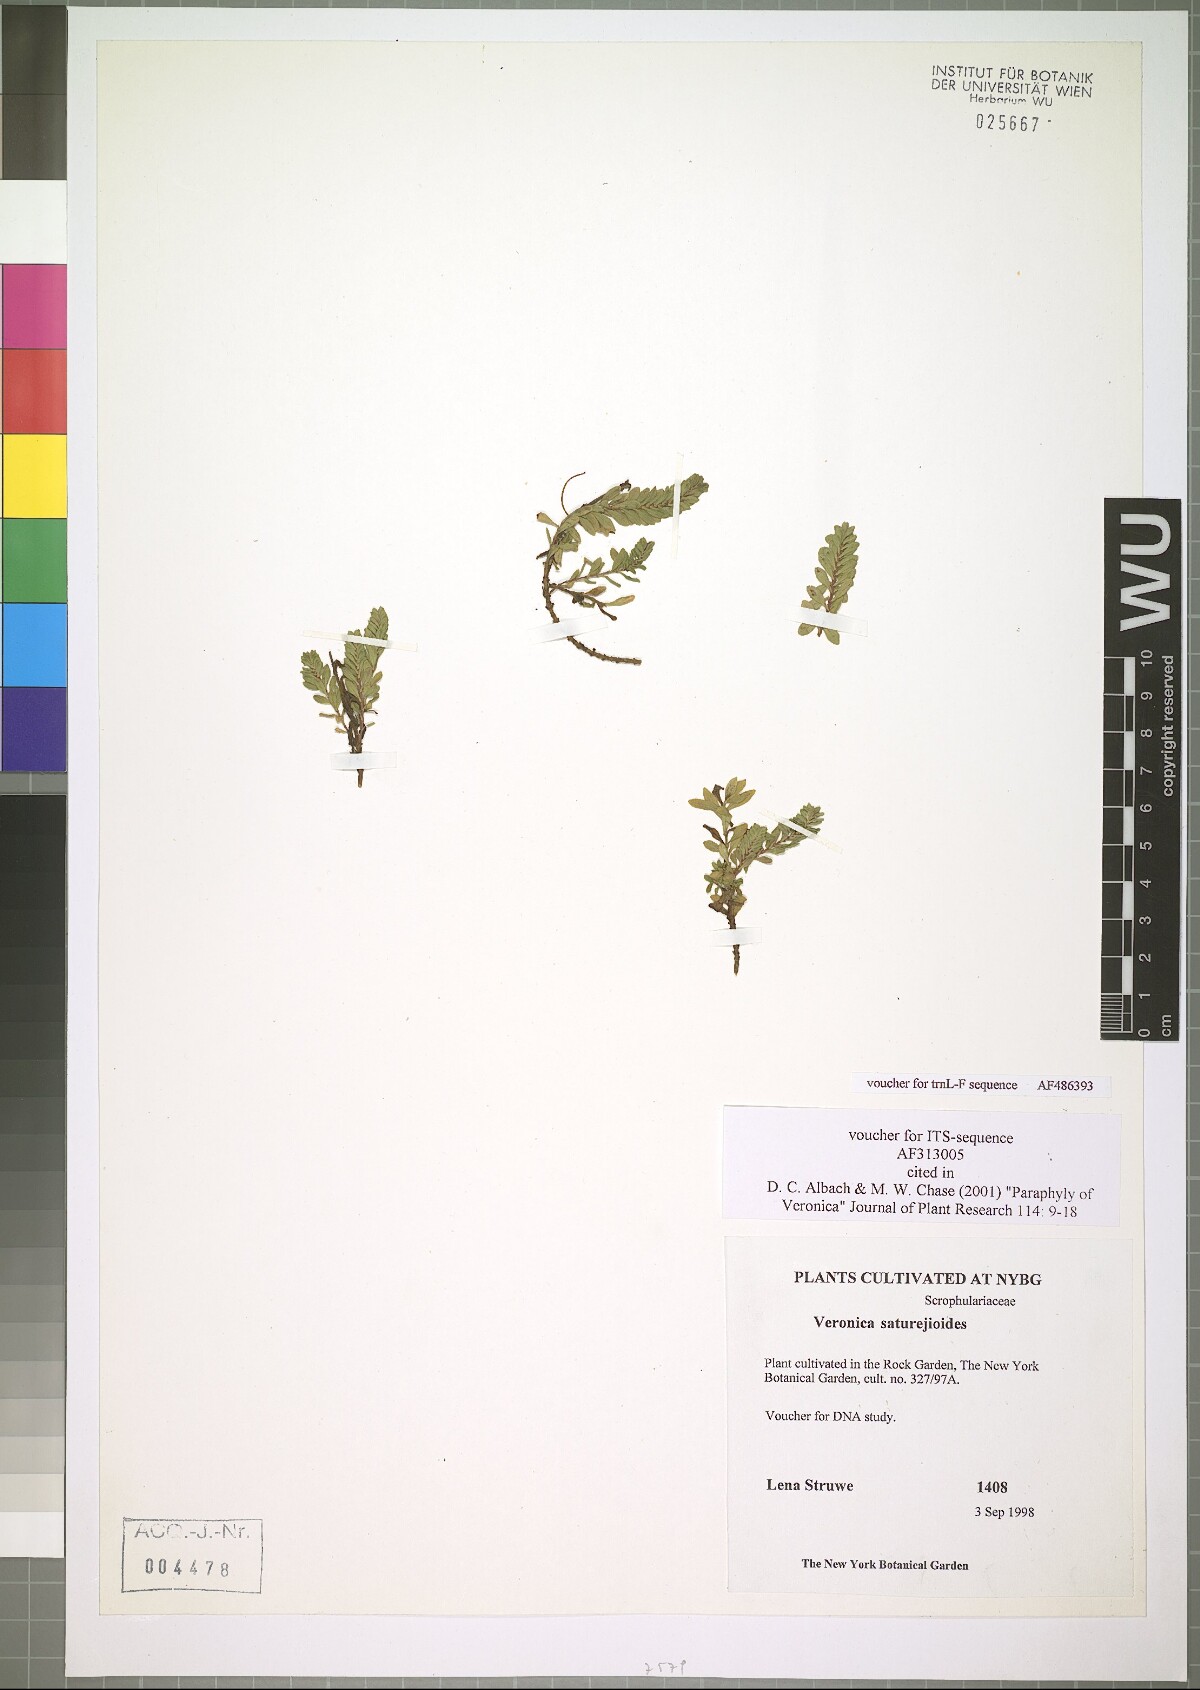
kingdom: Plantae
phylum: Tracheophyta
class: Magnoliopsida
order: Lamiales
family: Plantaginaceae
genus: Veronica
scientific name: Veronica saturejoides
